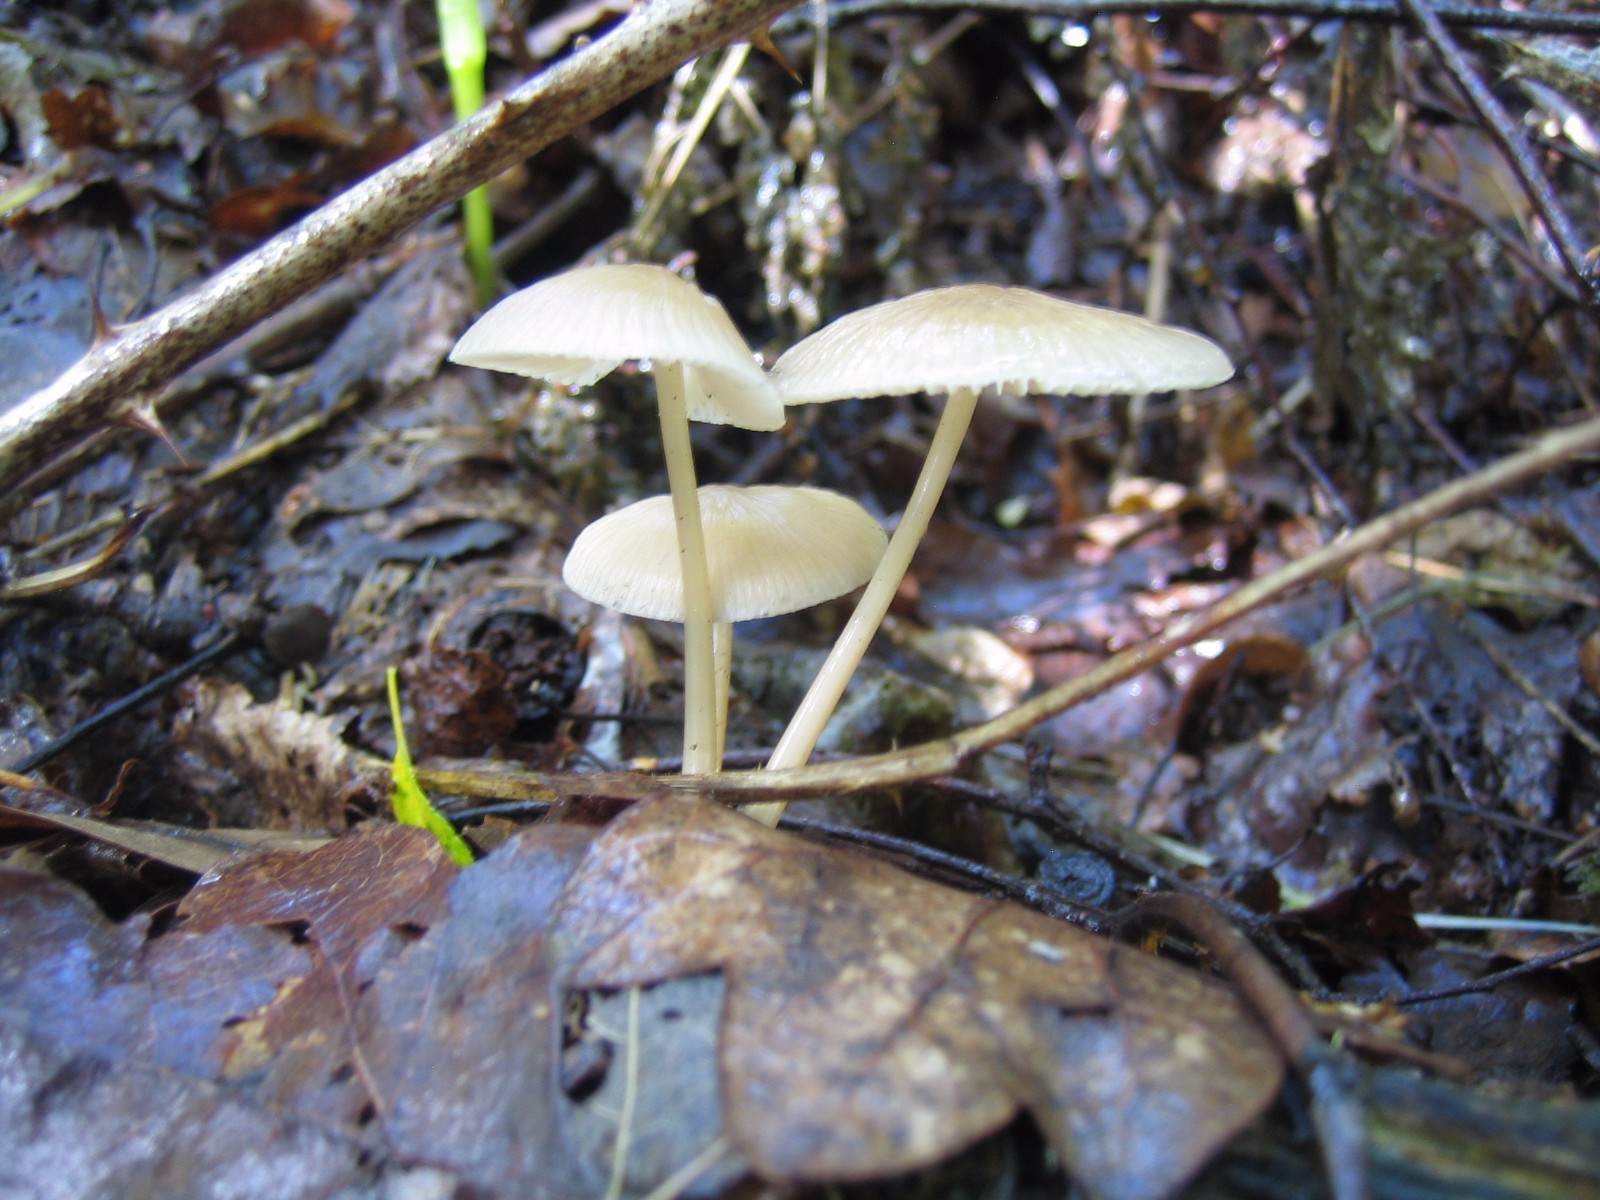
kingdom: Fungi
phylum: Basidiomycota
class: Agaricomycetes
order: Agaricales
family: Mycenaceae
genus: Mycena
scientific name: Mycena galericulata
